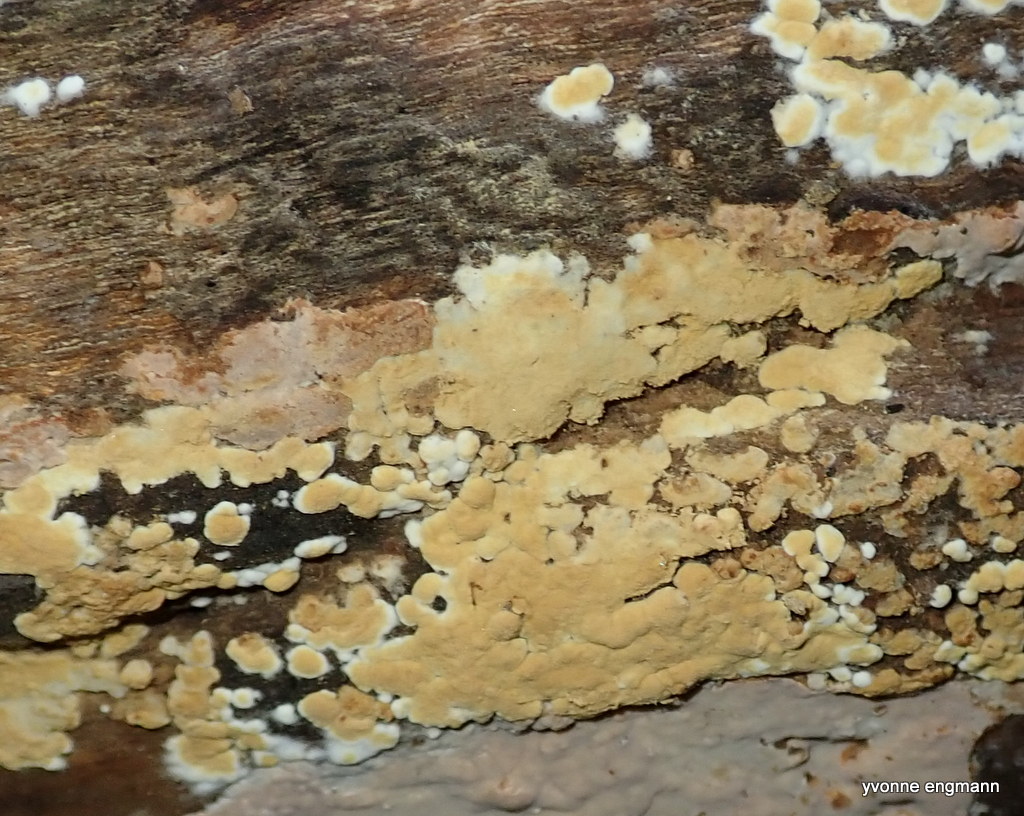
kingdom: Fungi
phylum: Basidiomycota
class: Agaricomycetes
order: Cantharellales
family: Botryobasidiaceae
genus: Botryobasidium
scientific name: Botryobasidium aureum
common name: gylden spindhinde
